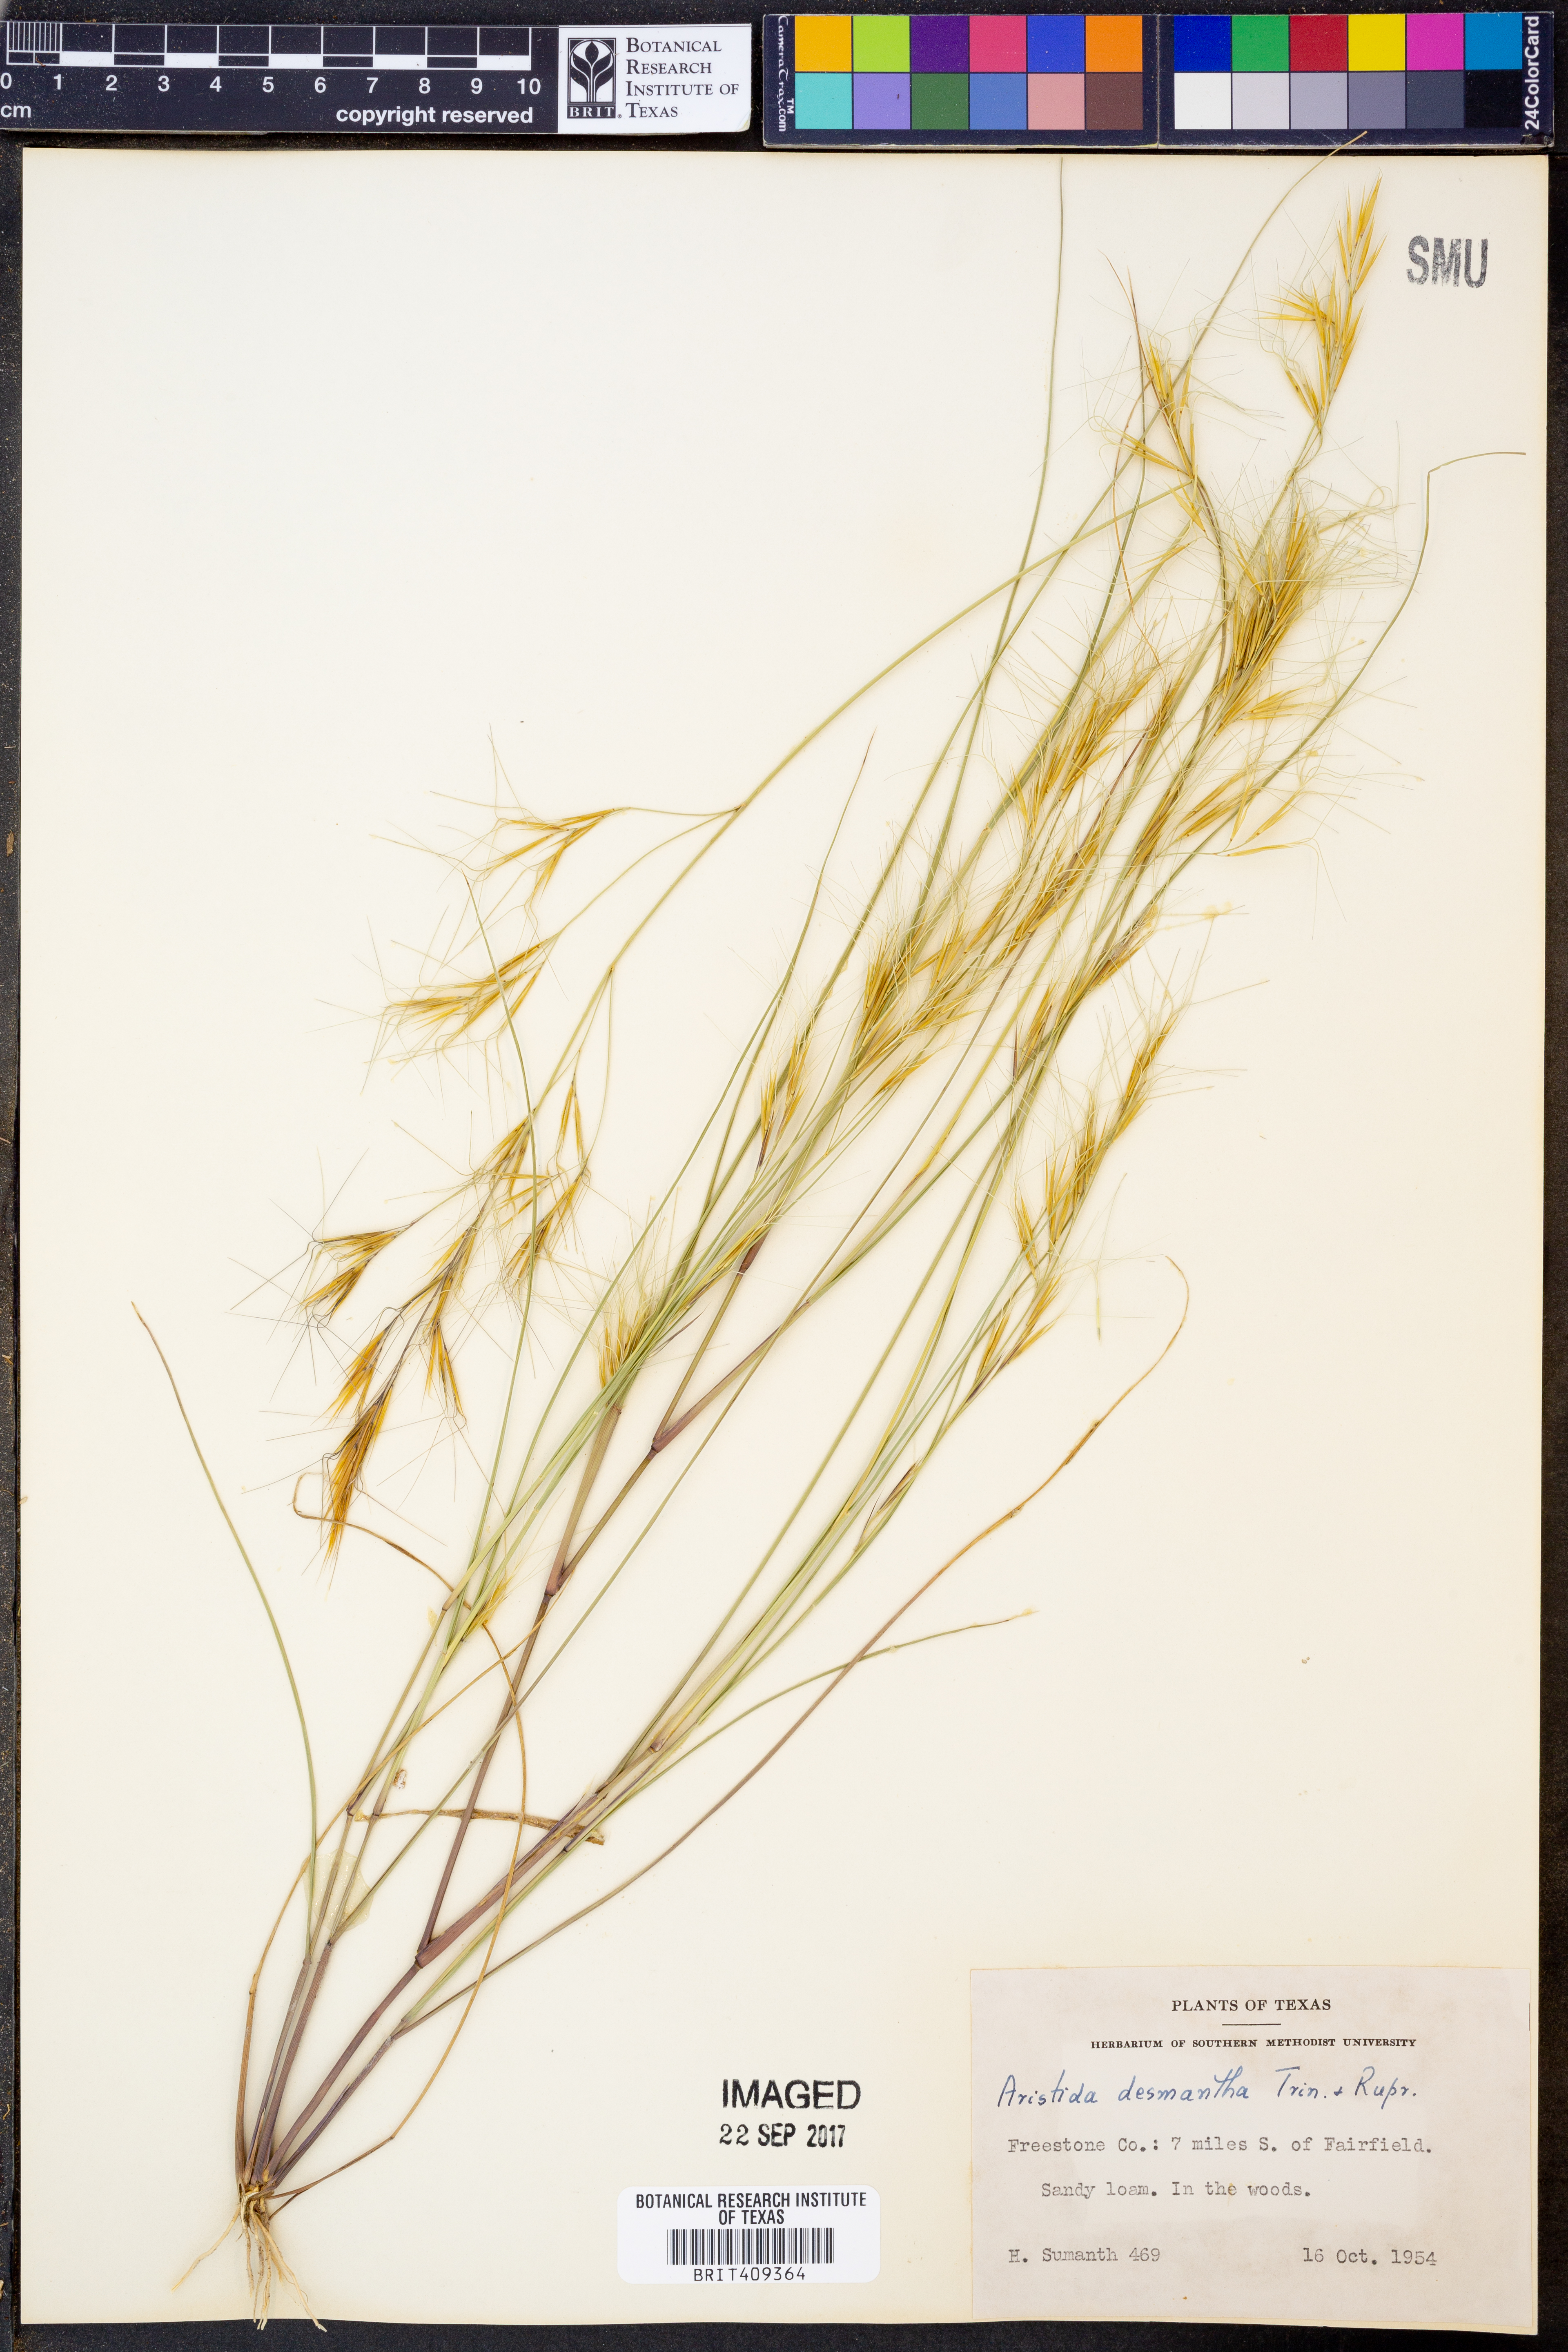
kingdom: Plantae
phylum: Tracheophyta
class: Liliopsida
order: Poales
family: Poaceae
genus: Aristida
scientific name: Aristida desmantha
